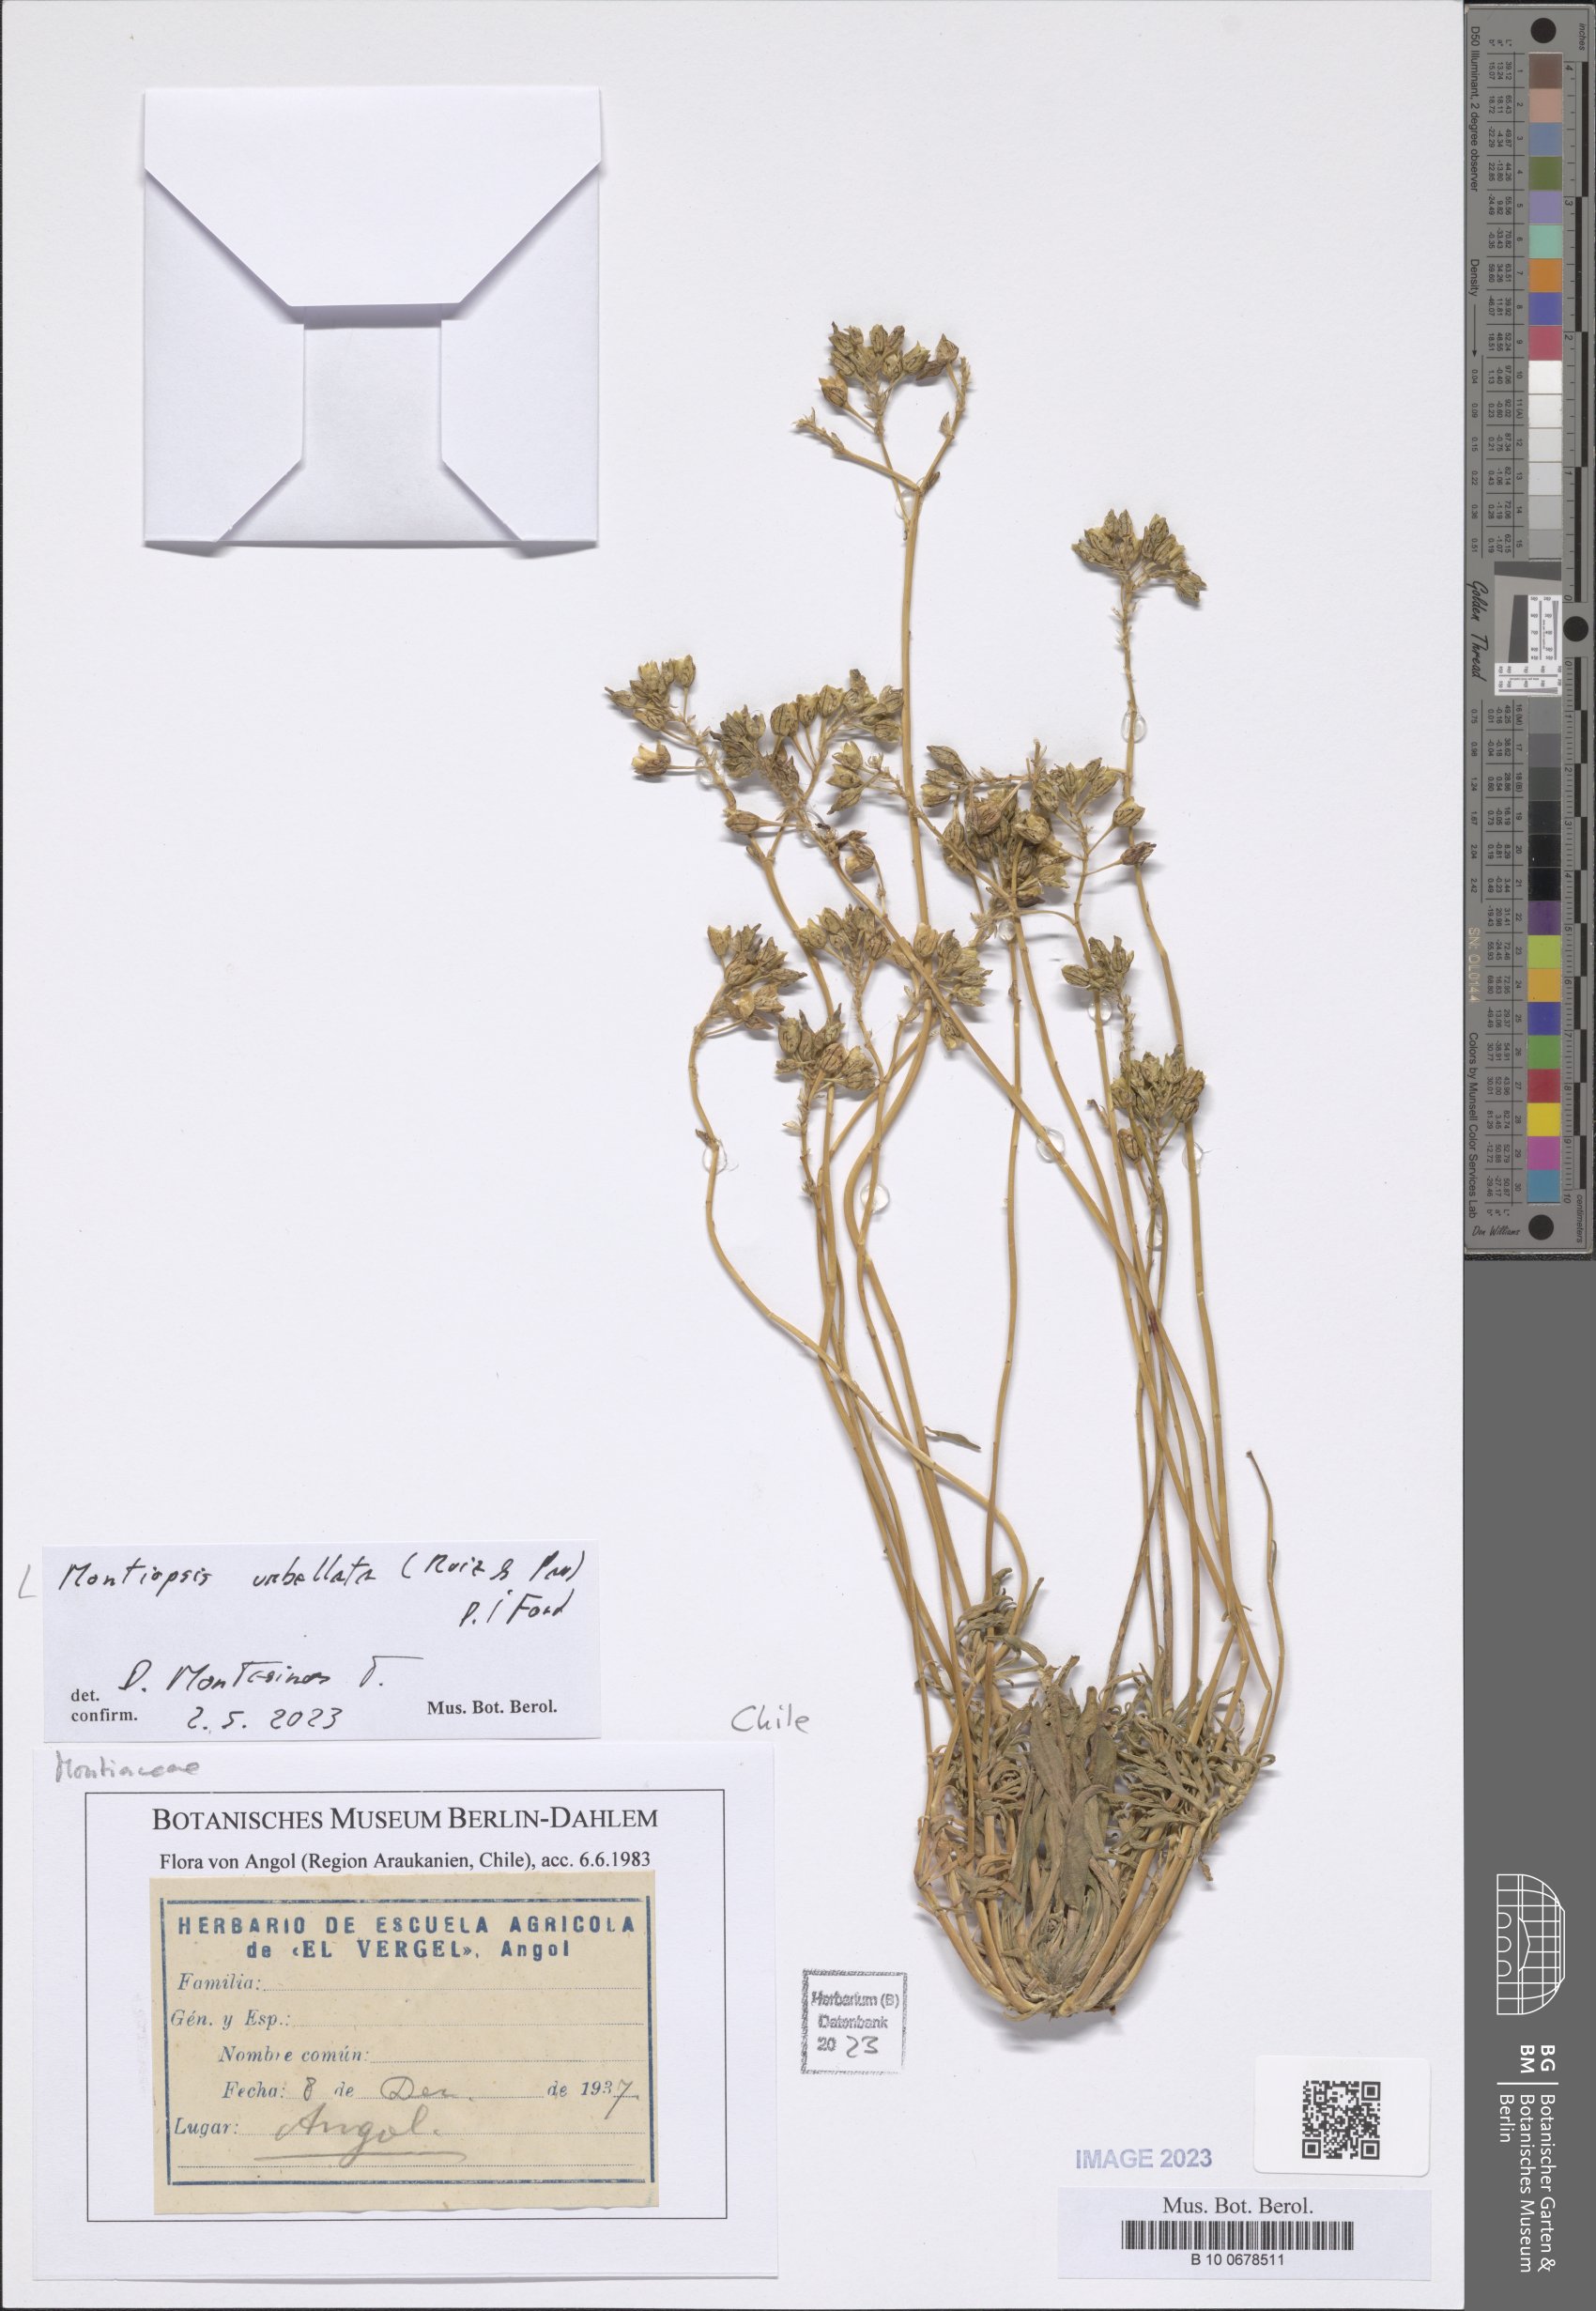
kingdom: Plantae
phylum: Tracheophyta
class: Magnoliopsida
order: Caryophyllales
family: Montiaceae
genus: Montiopsis
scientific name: Montiopsis umbellata
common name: Rock-purslane
